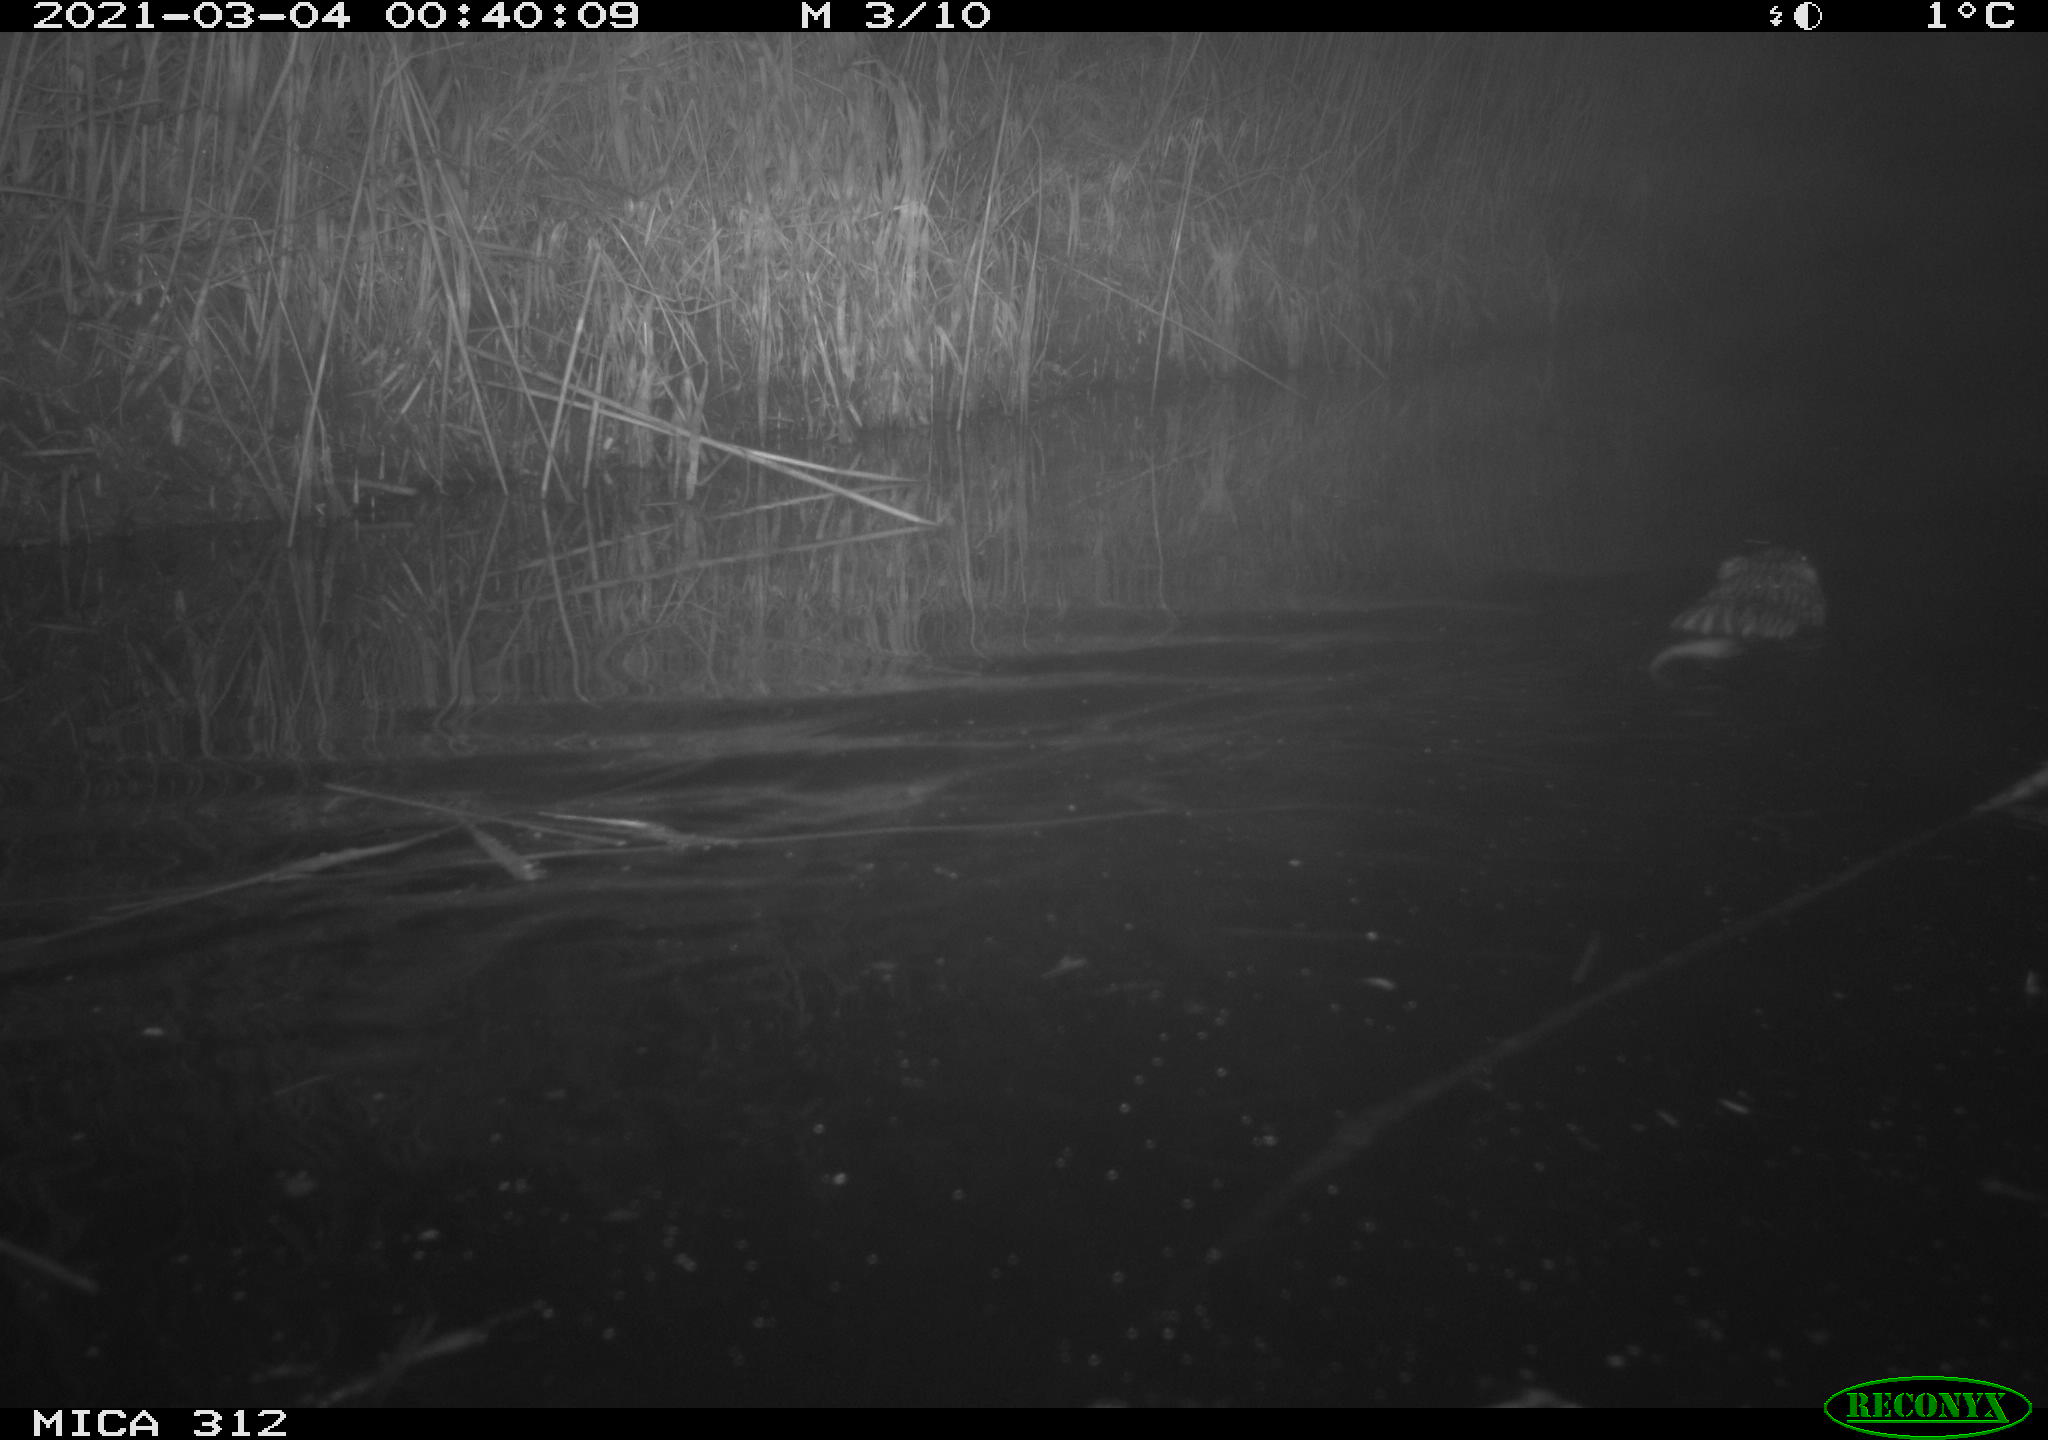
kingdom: Animalia
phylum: Chordata
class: Mammalia
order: Rodentia
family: Cricetidae
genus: Ondatra
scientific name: Ondatra zibethicus
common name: Muskrat
